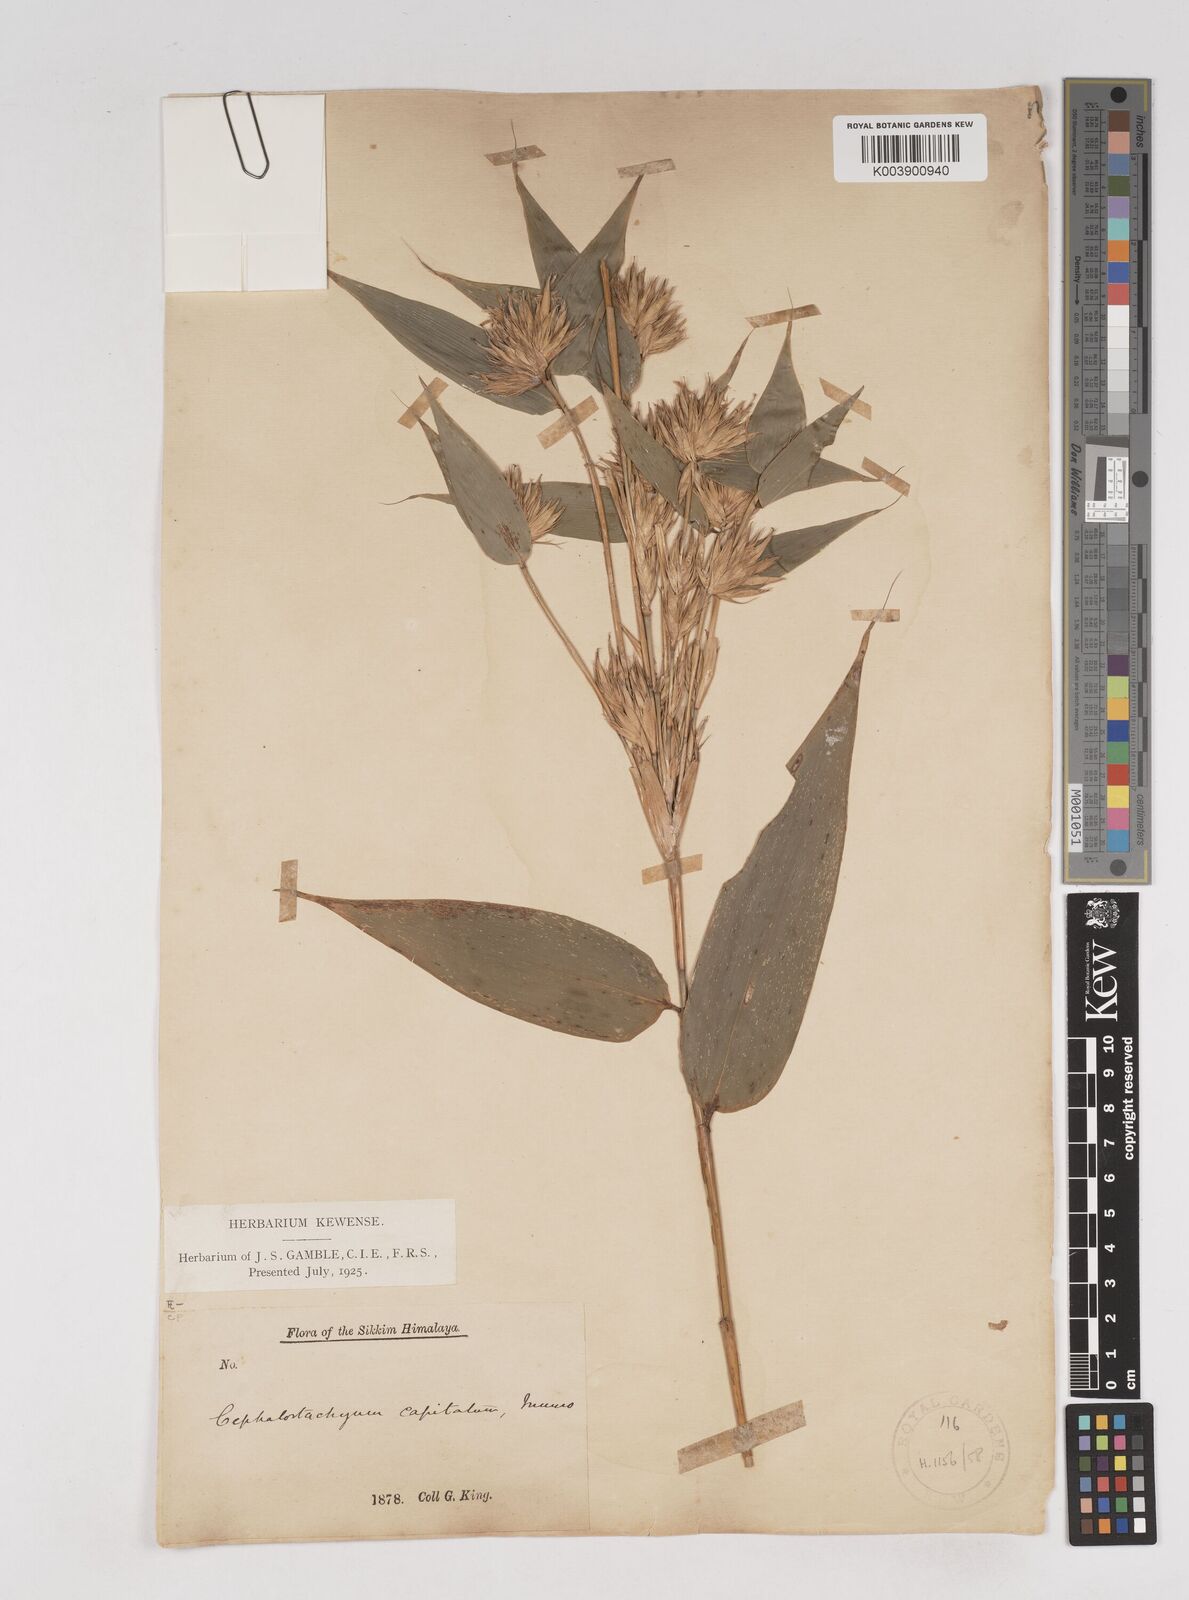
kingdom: Plantae
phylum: Tracheophyta
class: Liliopsida
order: Poales
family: Poaceae
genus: Cephalostachyum
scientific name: Cephalostachyum
